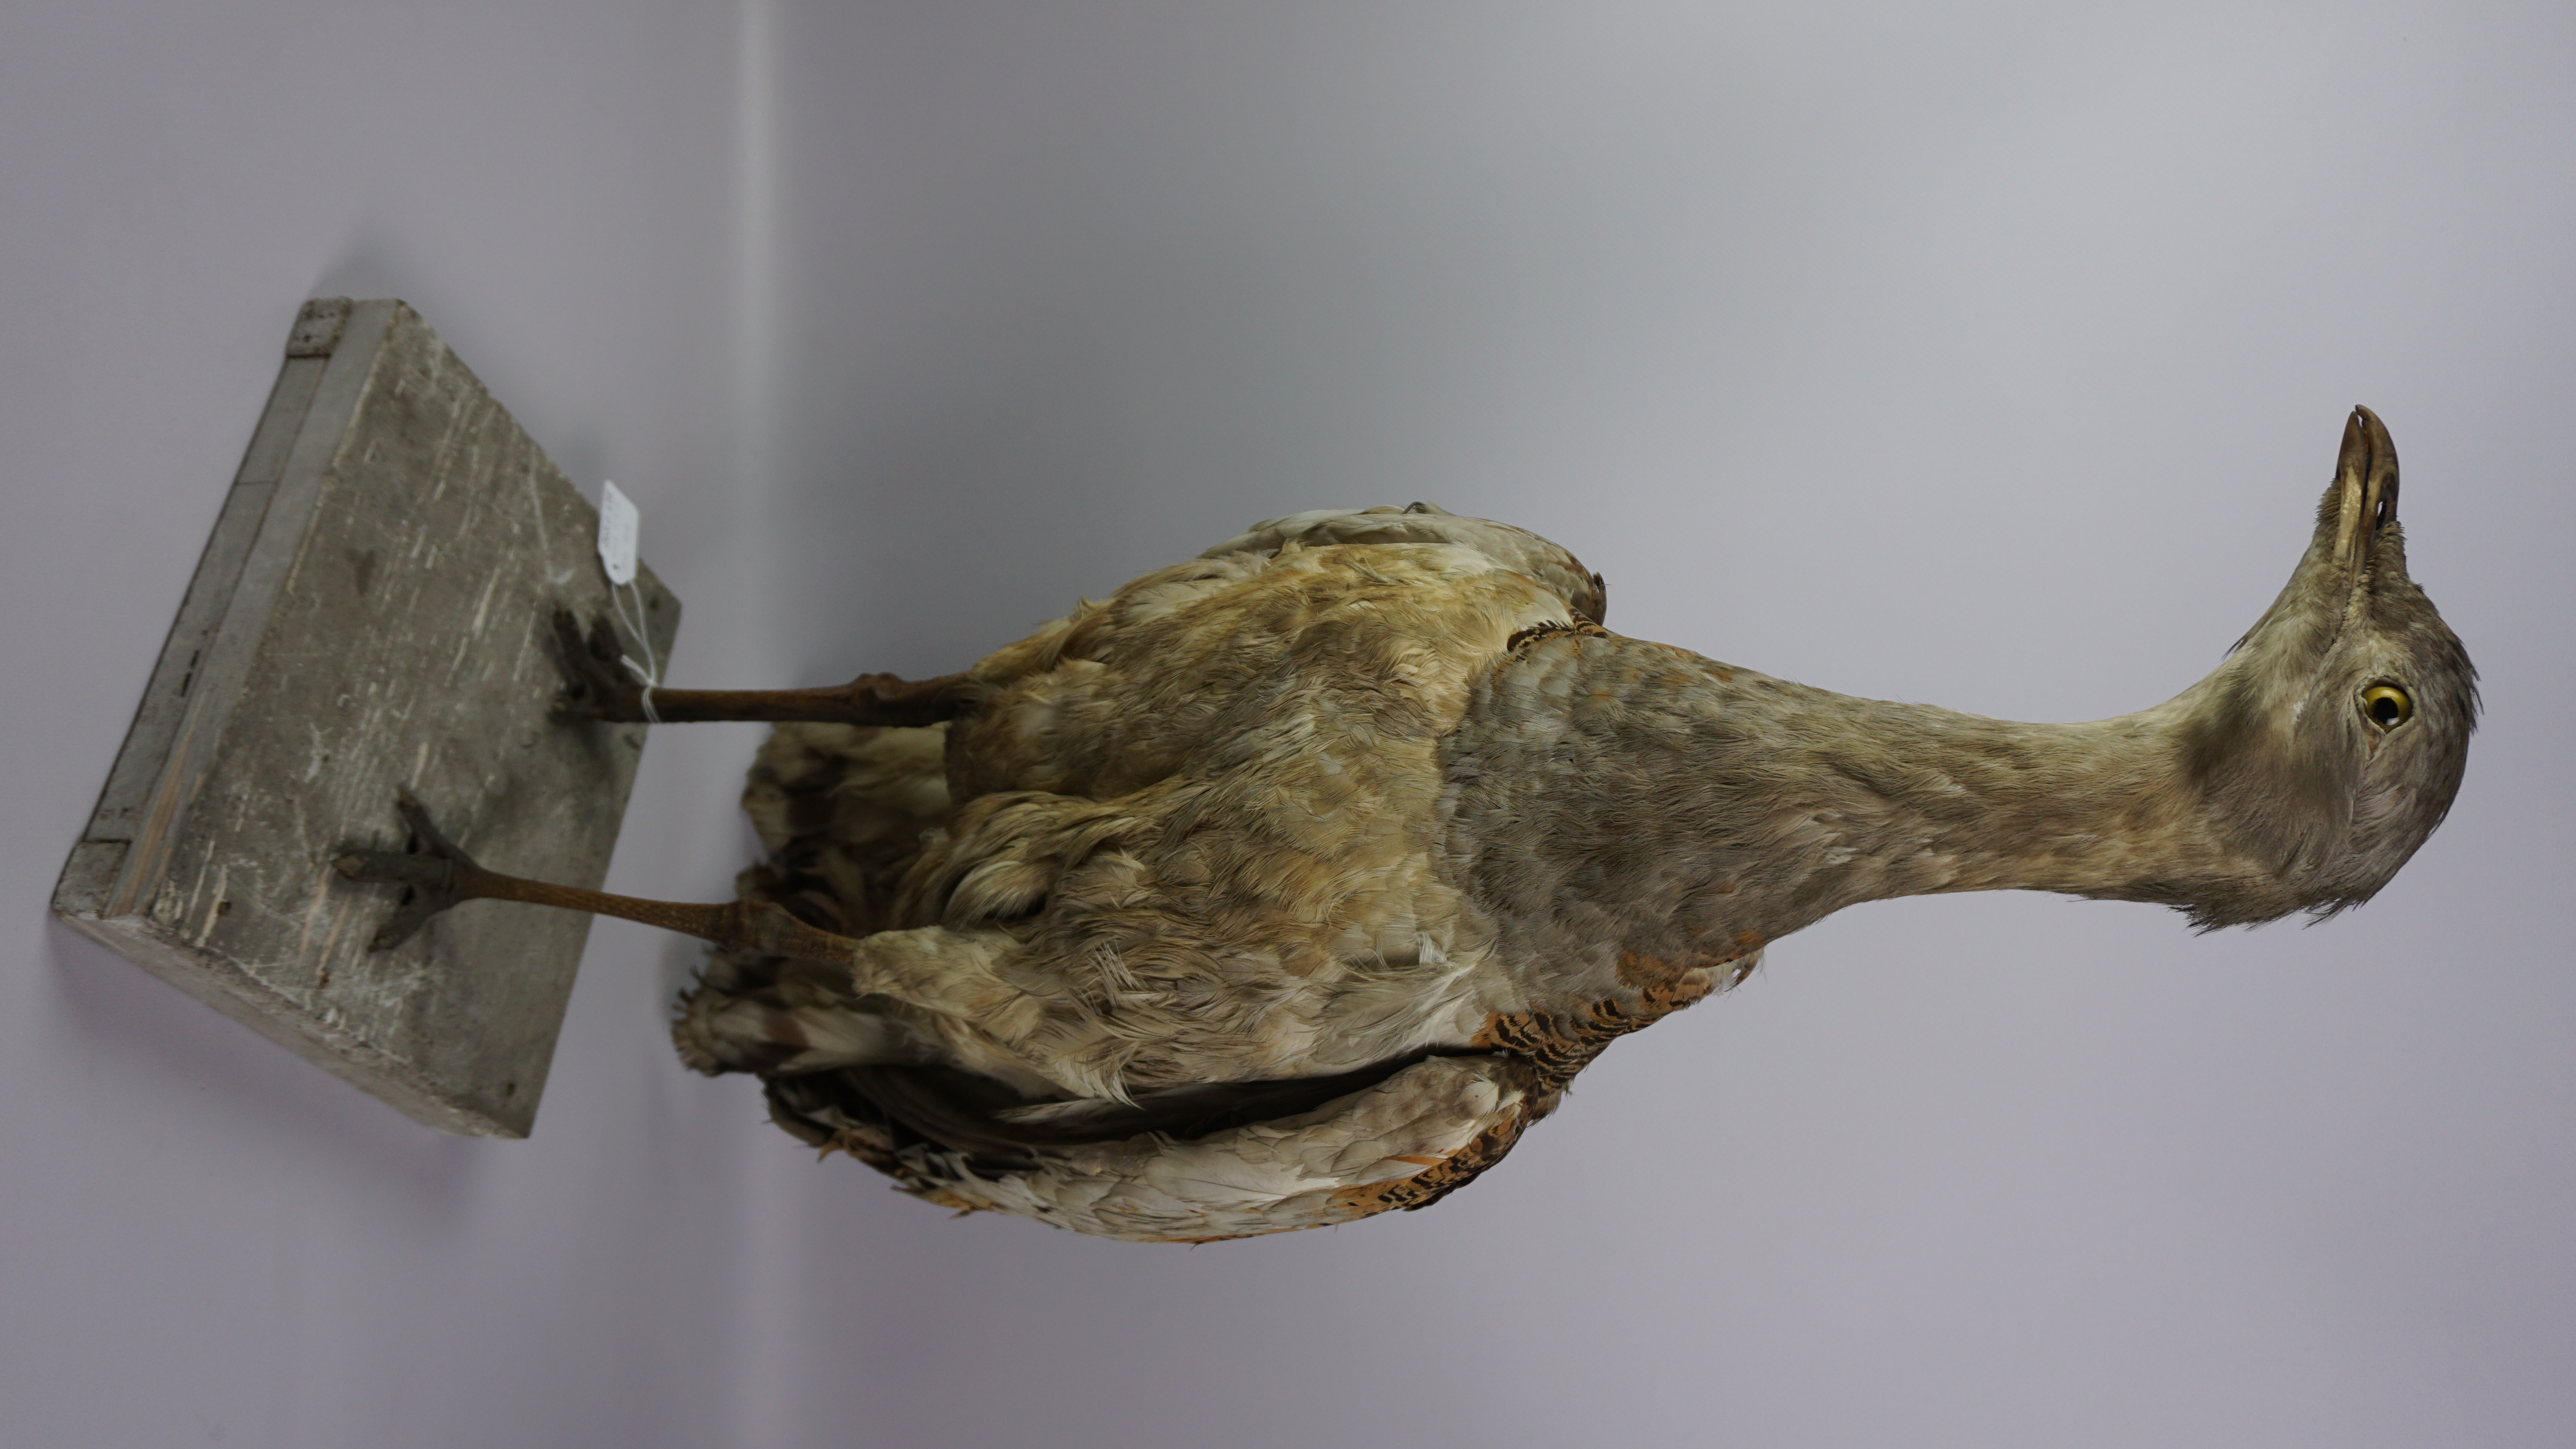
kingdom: Animalia
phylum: Chordata
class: Aves
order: Otidiformes
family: Otididae
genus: Otis
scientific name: Otis tarda
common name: Great bustard
